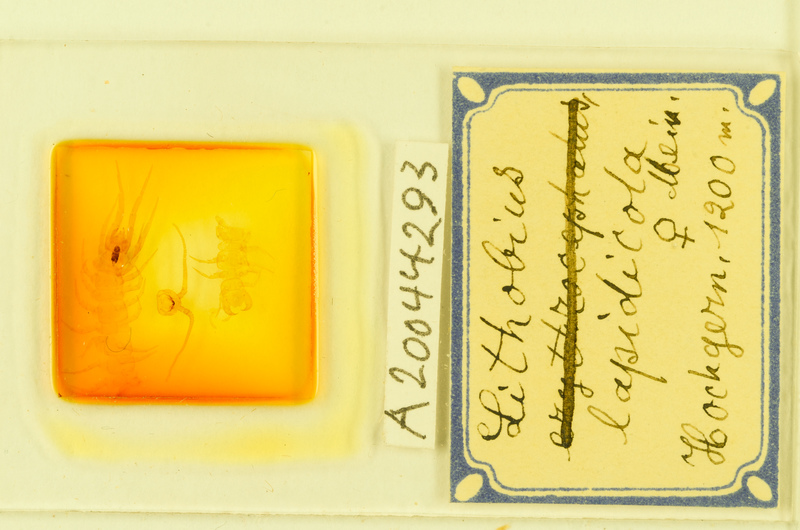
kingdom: Animalia
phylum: Arthropoda
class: Chilopoda
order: Lithobiomorpha
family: Lithobiidae
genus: Lithobius
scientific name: Lithobius lapidicola
